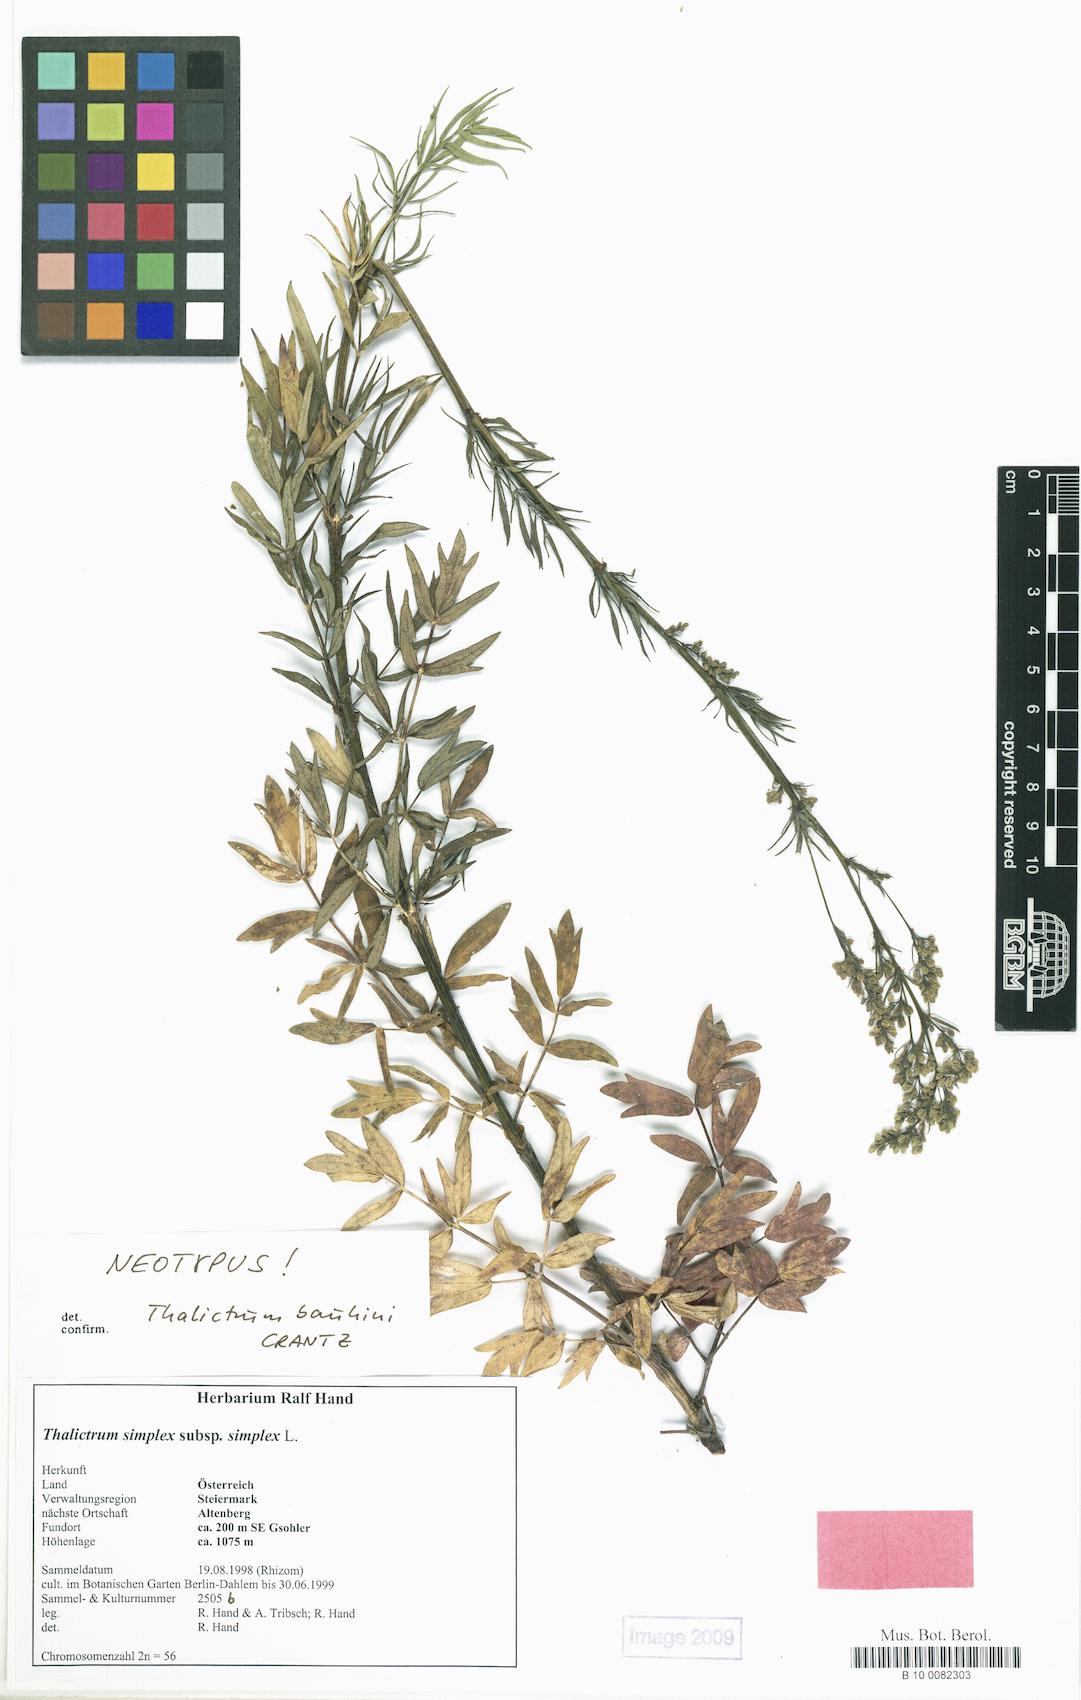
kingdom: Plantae
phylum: Tracheophyta
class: Magnoliopsida
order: Ranunculales
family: Ranunculaceae
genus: Thalictrum
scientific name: Thalictrum simplex
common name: Small meadow-rue
